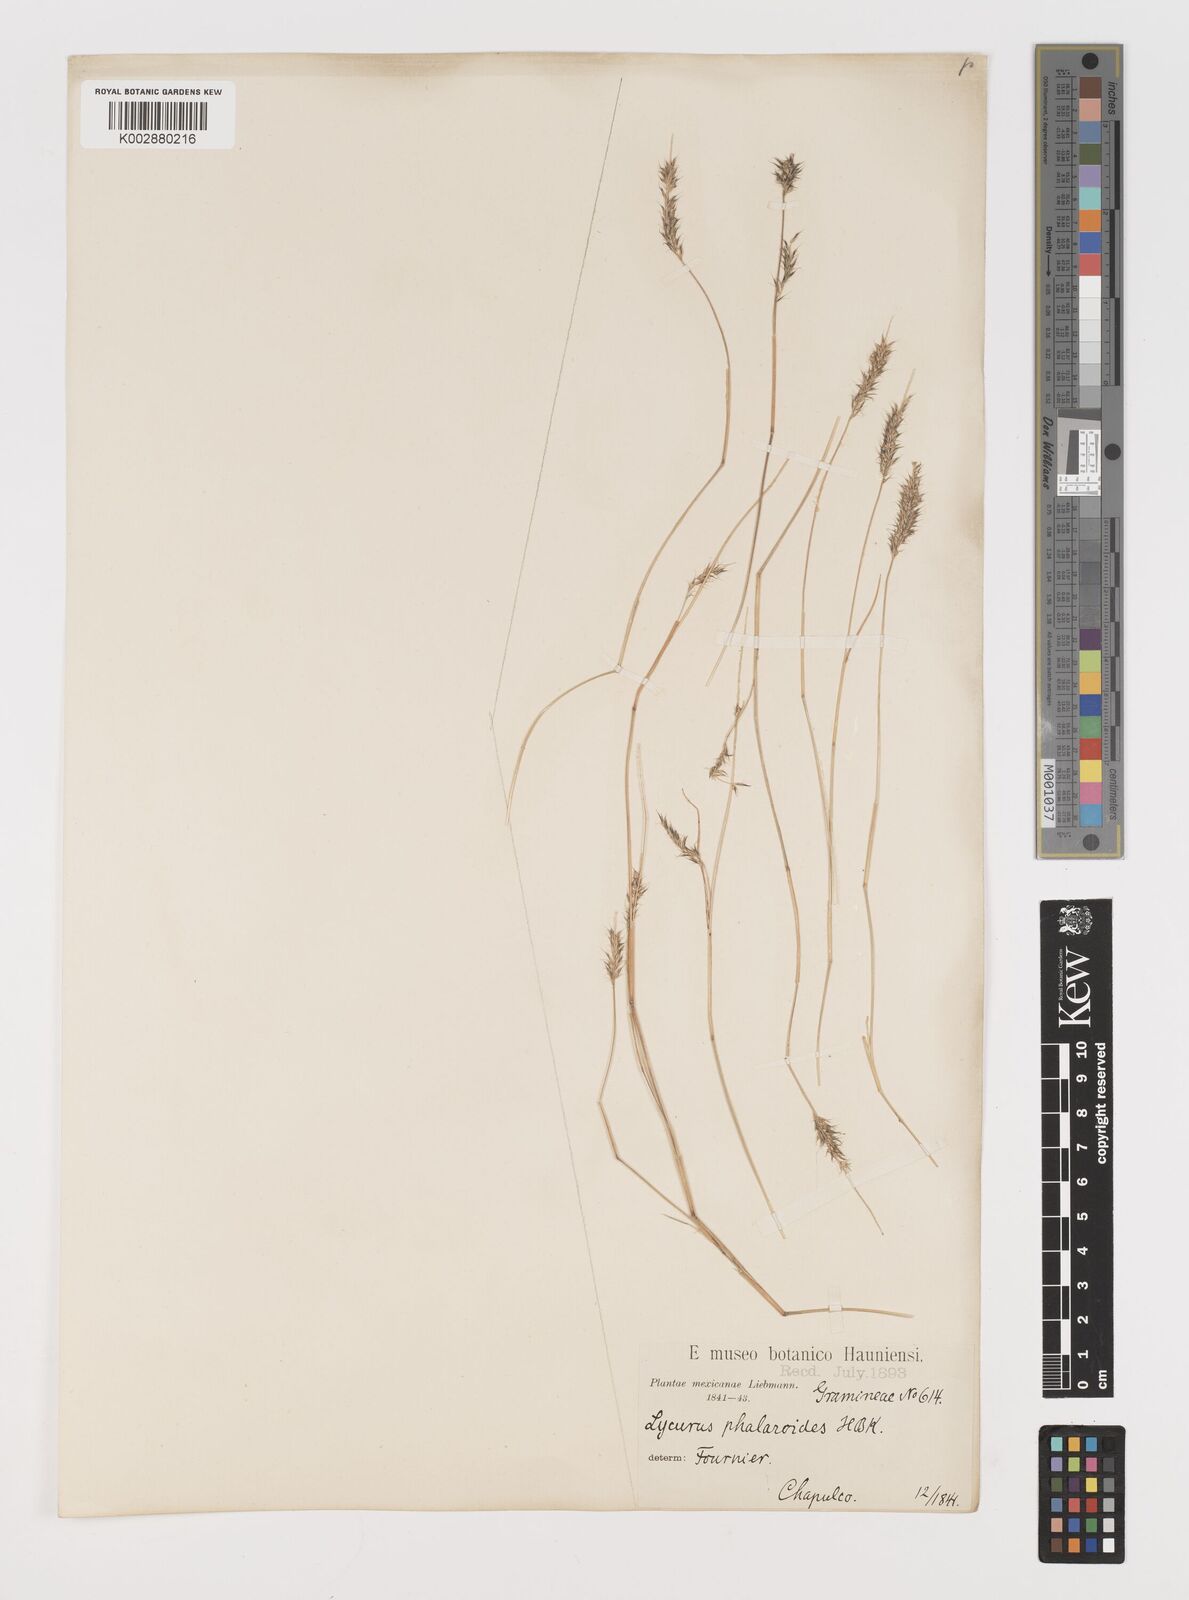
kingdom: Plantae
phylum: Tracheophyta
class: Liliopsida
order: Poales
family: Poaceae
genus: Muhlenbergia
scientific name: Muhlenbergia phleoides
